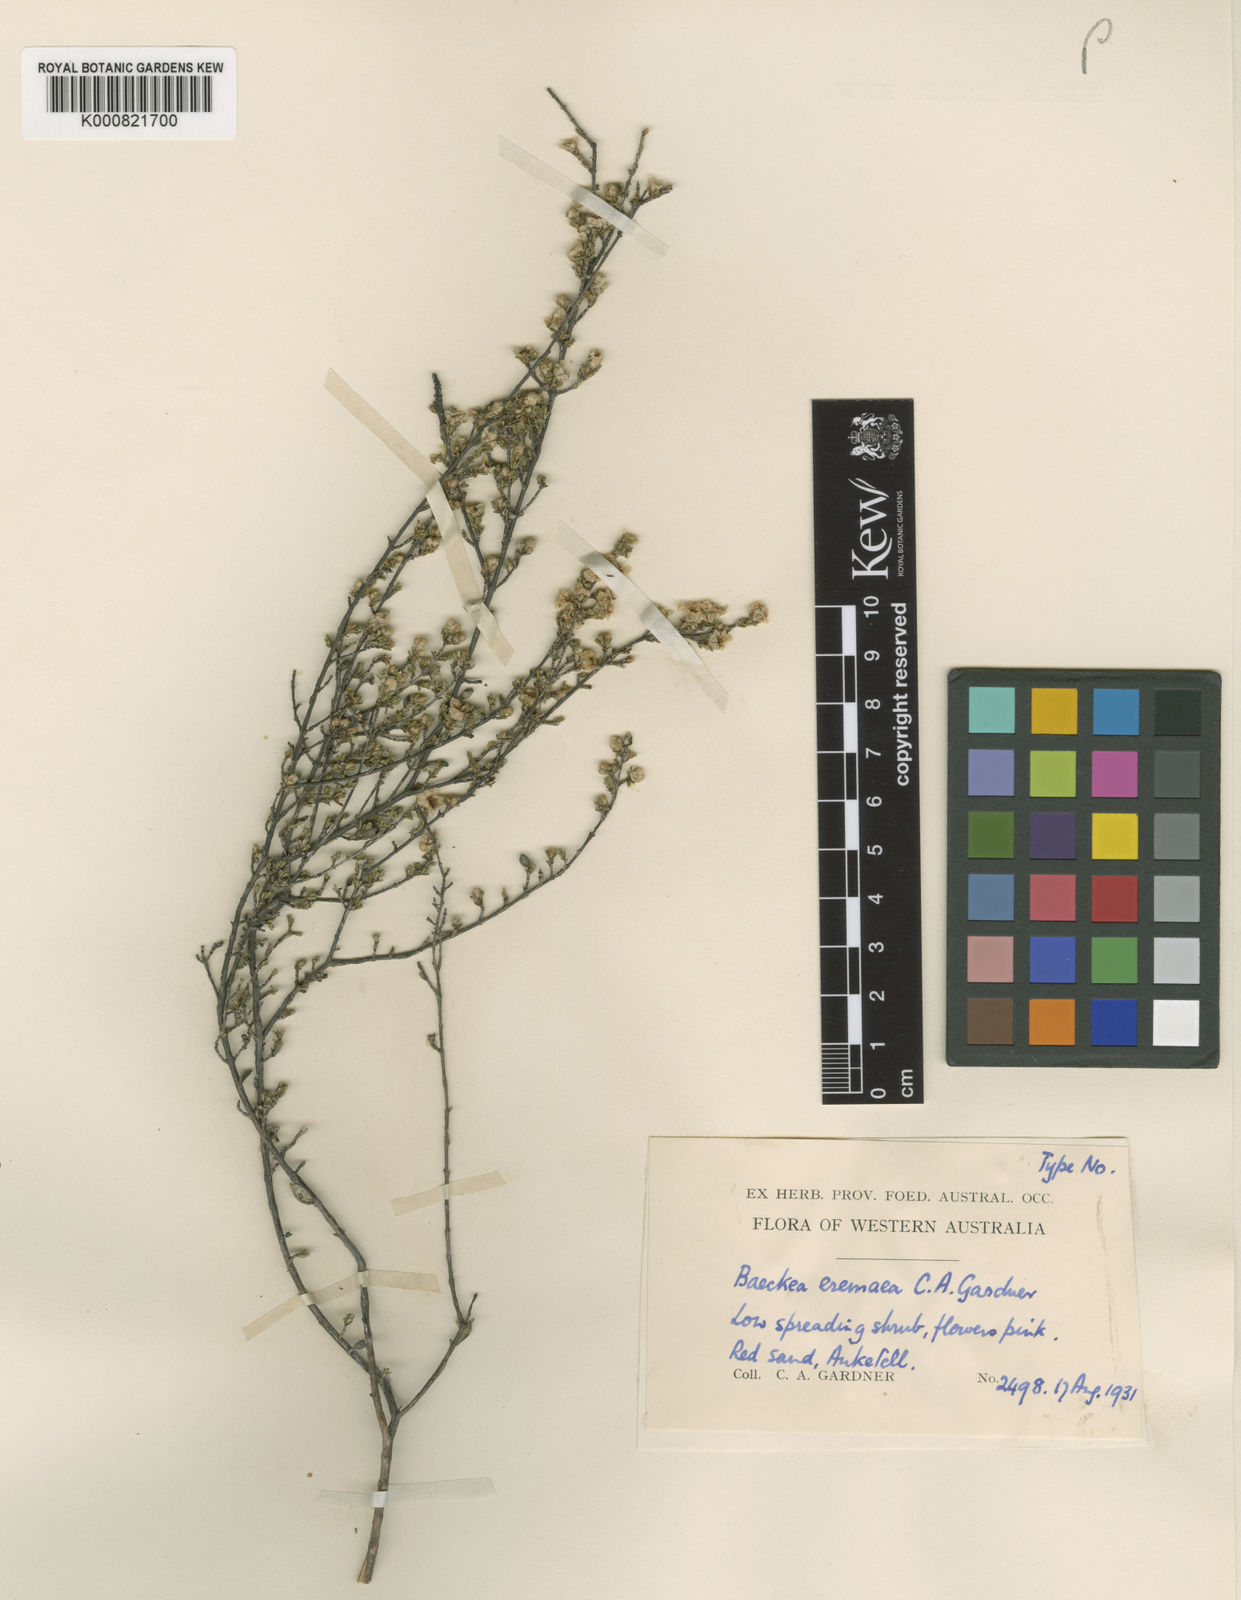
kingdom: Plantae
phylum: Tracheophyta
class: Magnoliopsida
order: Myrtales
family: Myrtaceae
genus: Baeckea
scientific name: Baeckea
